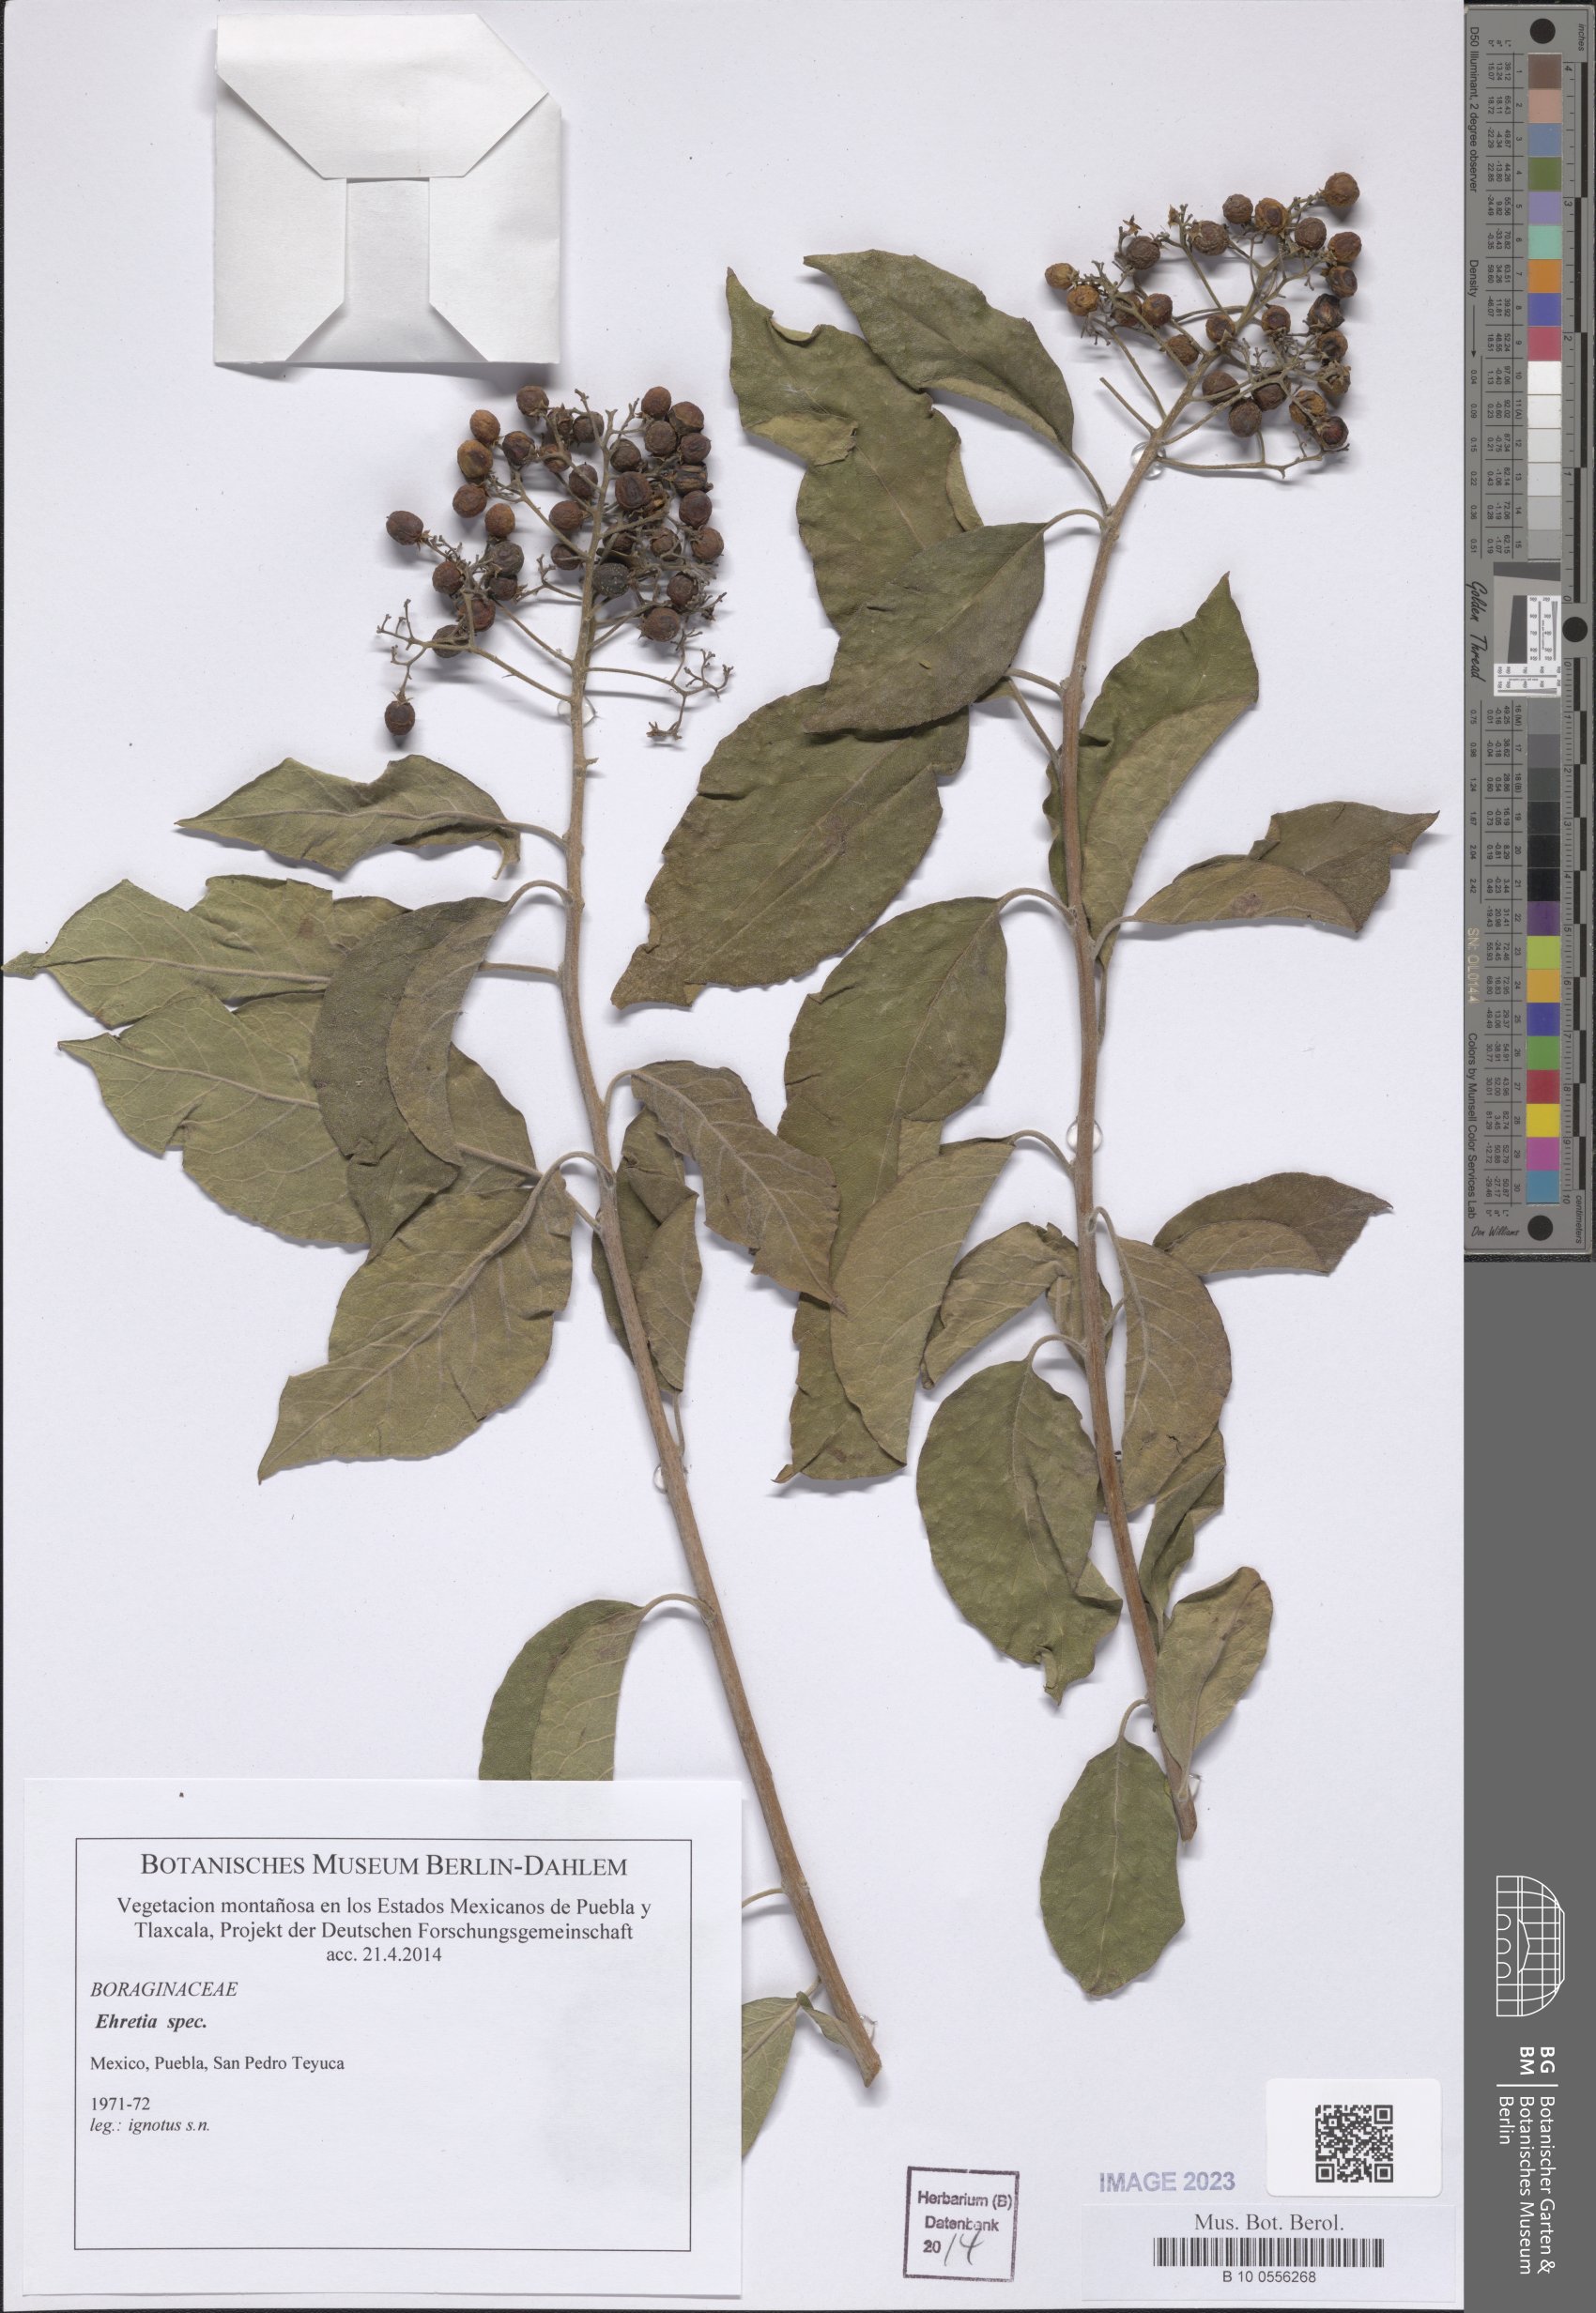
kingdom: Plantae
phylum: Tracheophyta
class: Magnoliopsida
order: Boraginales
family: Ehretiaceae
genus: Ehretia
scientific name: Ehretia
